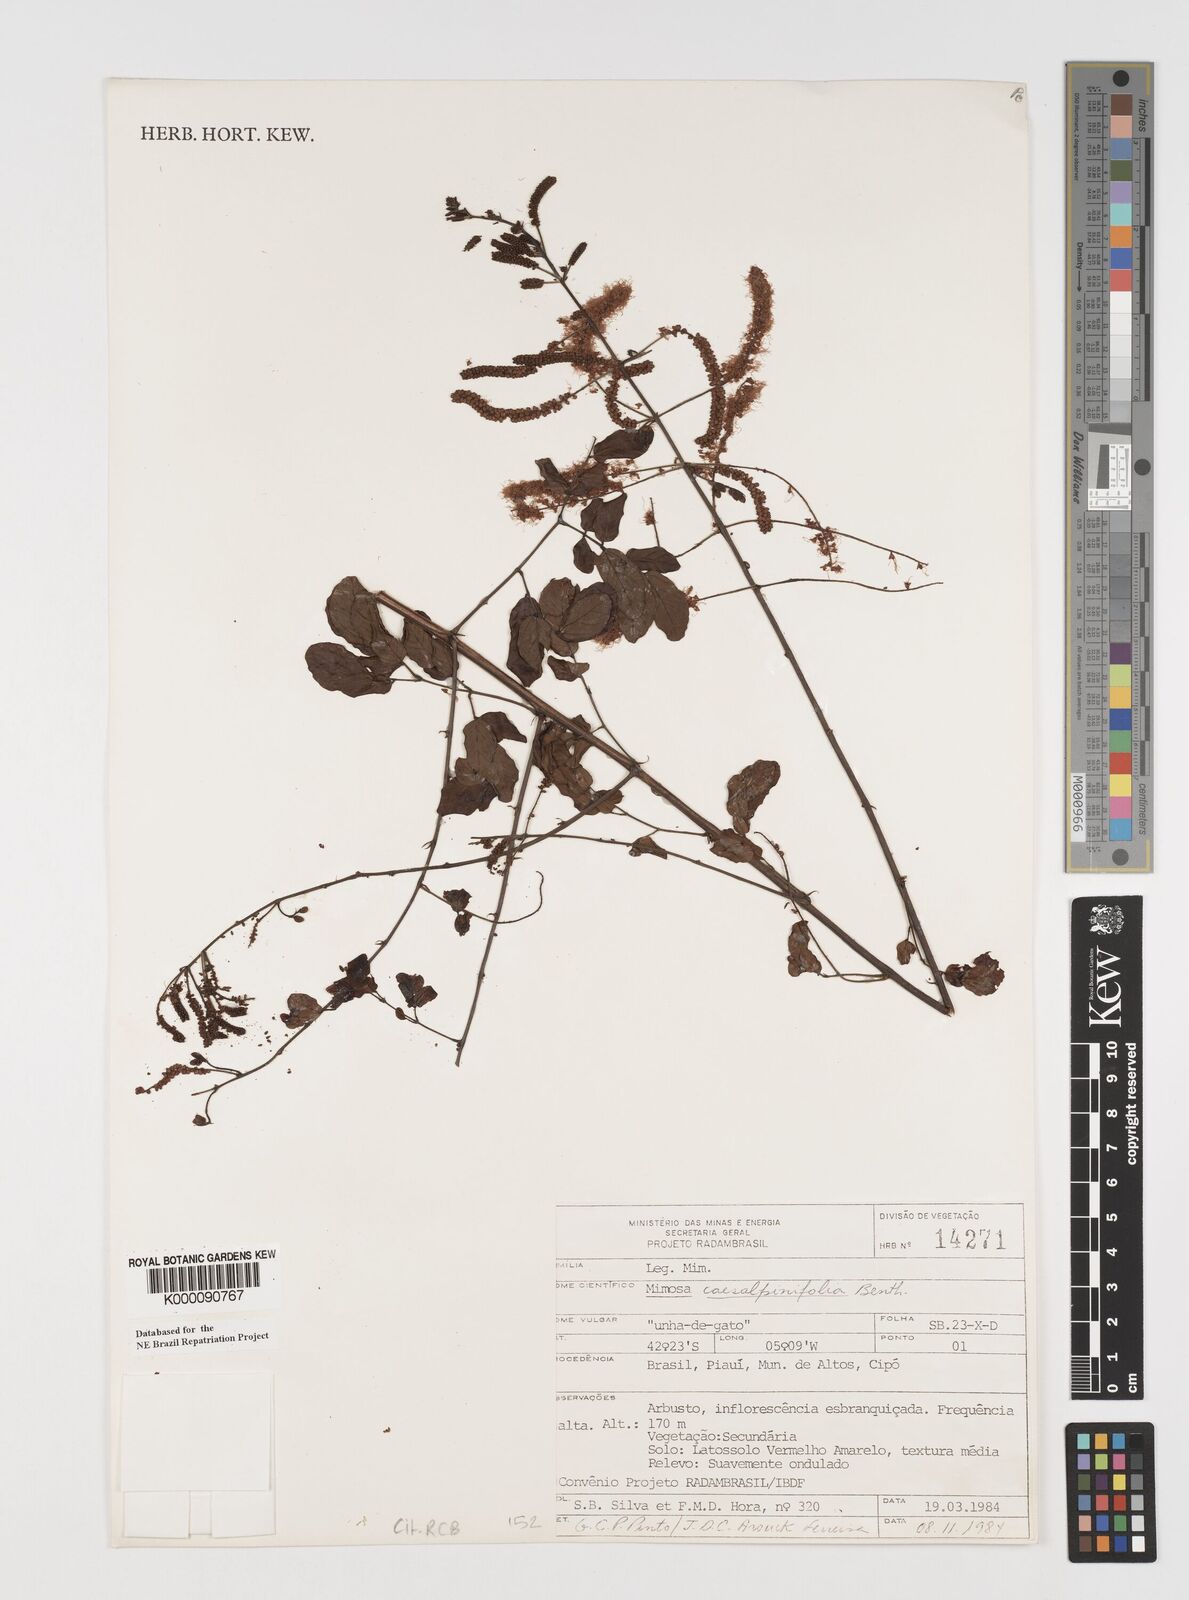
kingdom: Plantae
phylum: Tracheophyta
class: Magnoliopsida
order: Fabales
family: Fabaceae
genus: Mimosa
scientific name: Mimosa caesalpiniifolia
